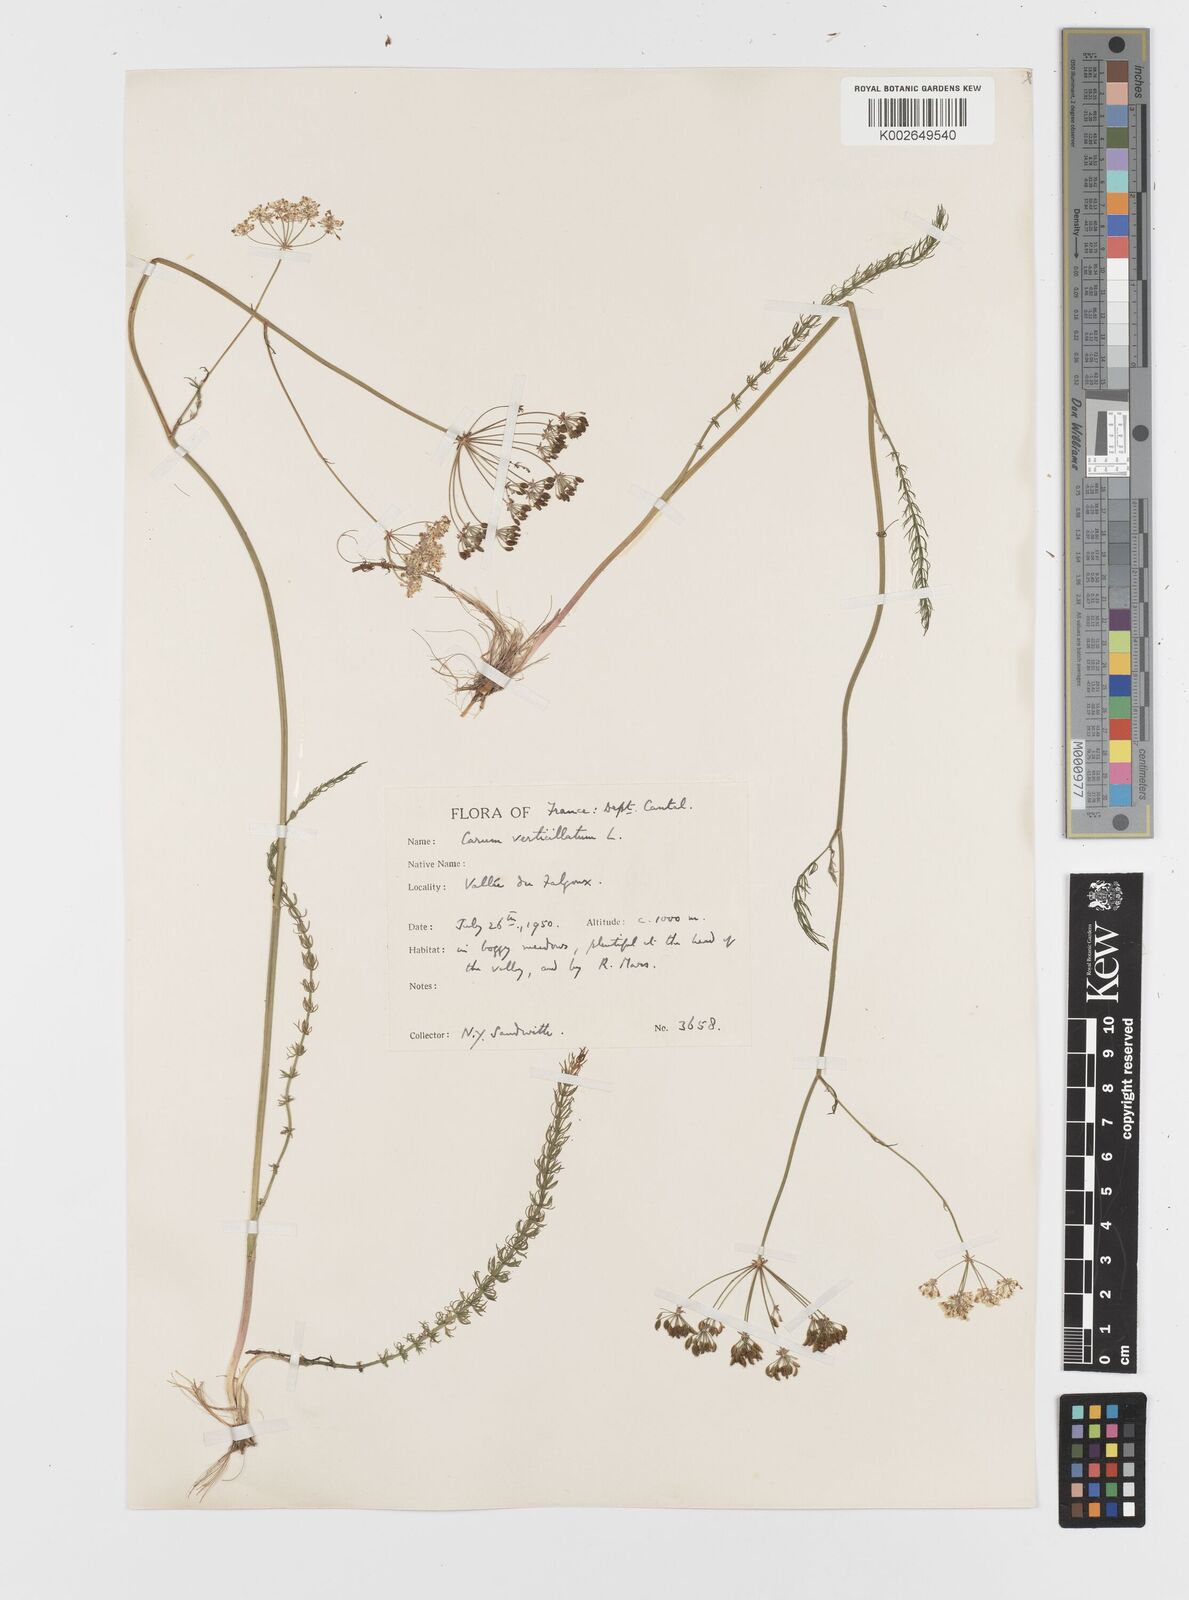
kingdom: Plantae
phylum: Tracheophyta
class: Magnoliopsida
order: Apiales
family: Apiaceae
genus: Trocdaris
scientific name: Trocdaris verticillatum
